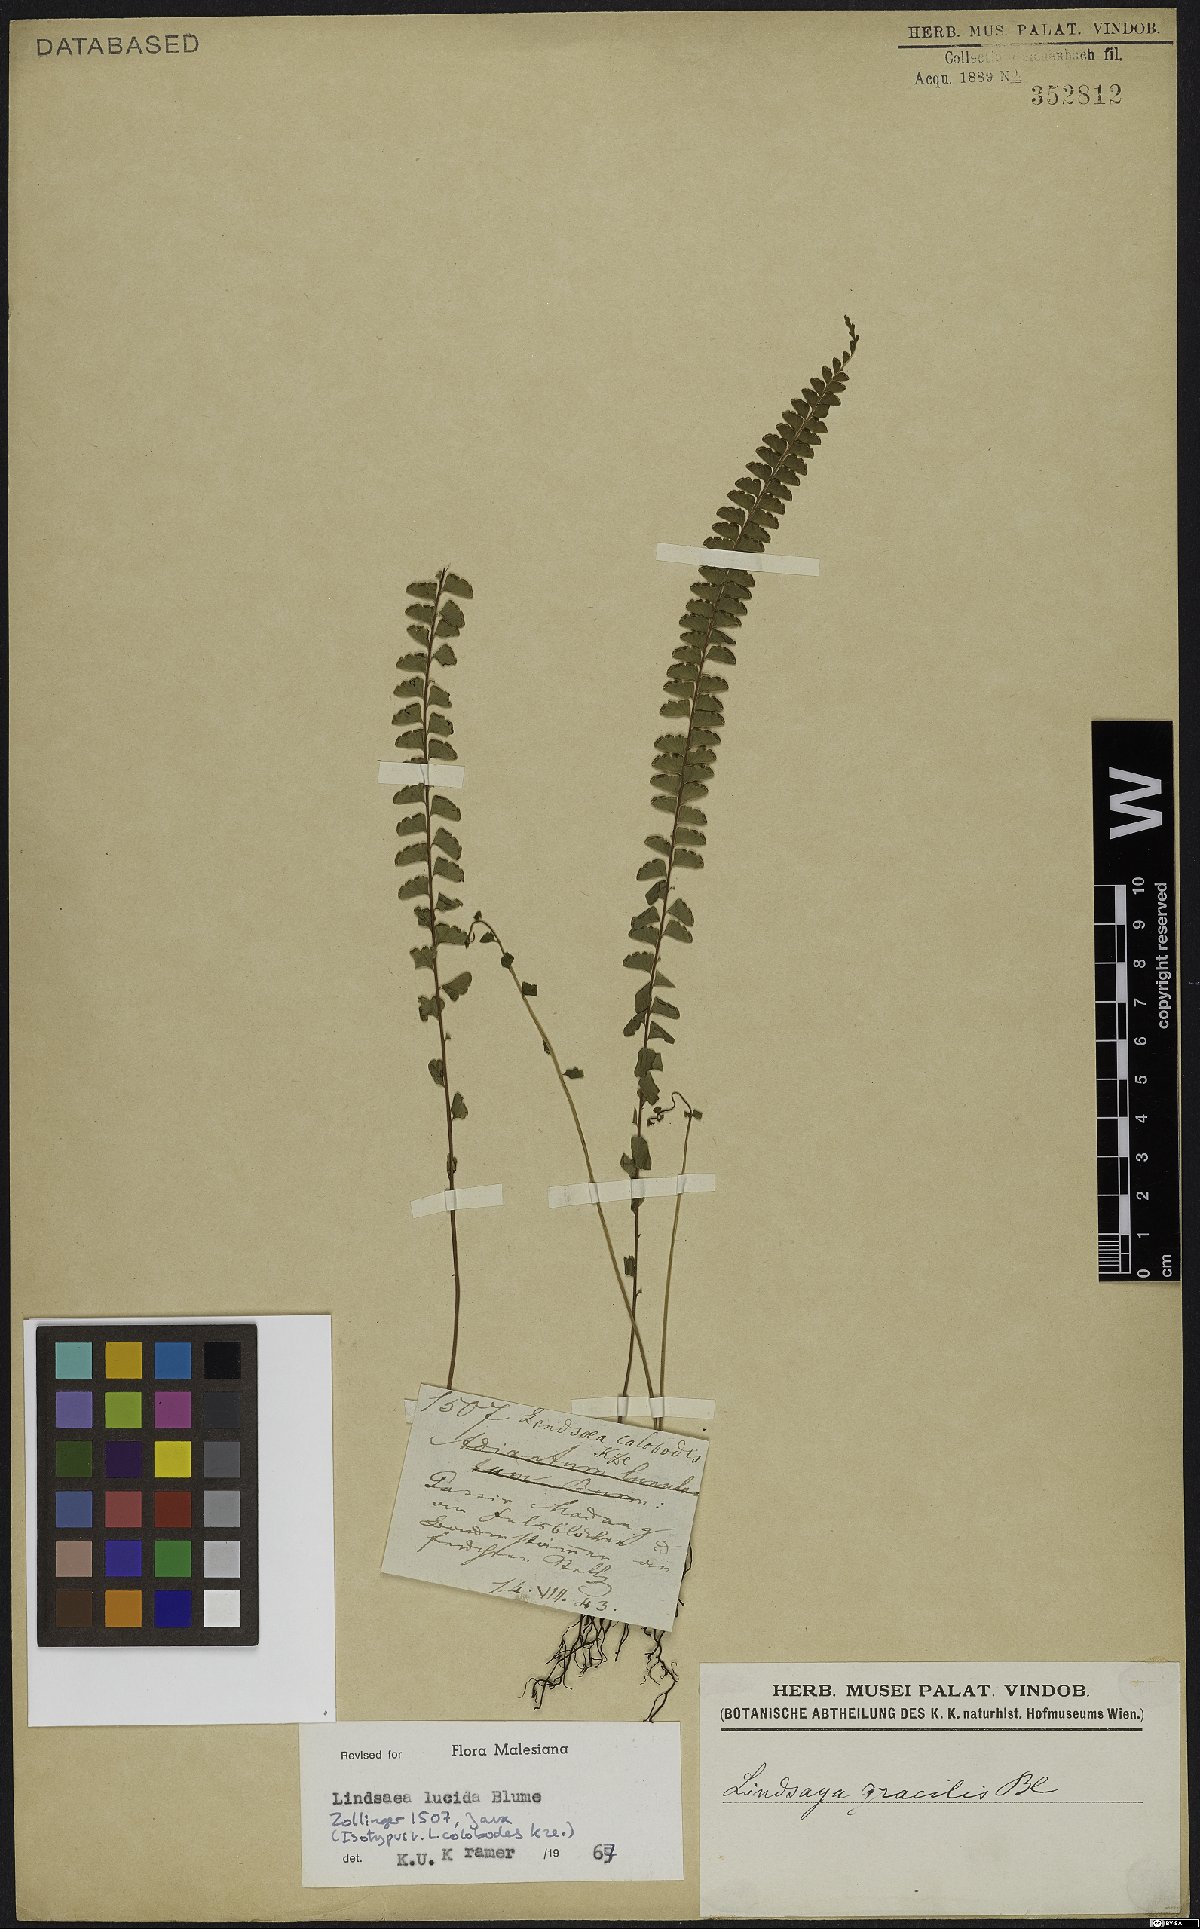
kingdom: Plantae
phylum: Tracheophyta
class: Polypodiopsida
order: Polypodiales
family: Lindsaeaceae
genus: Lindsaea
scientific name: Lindsaea lucida
